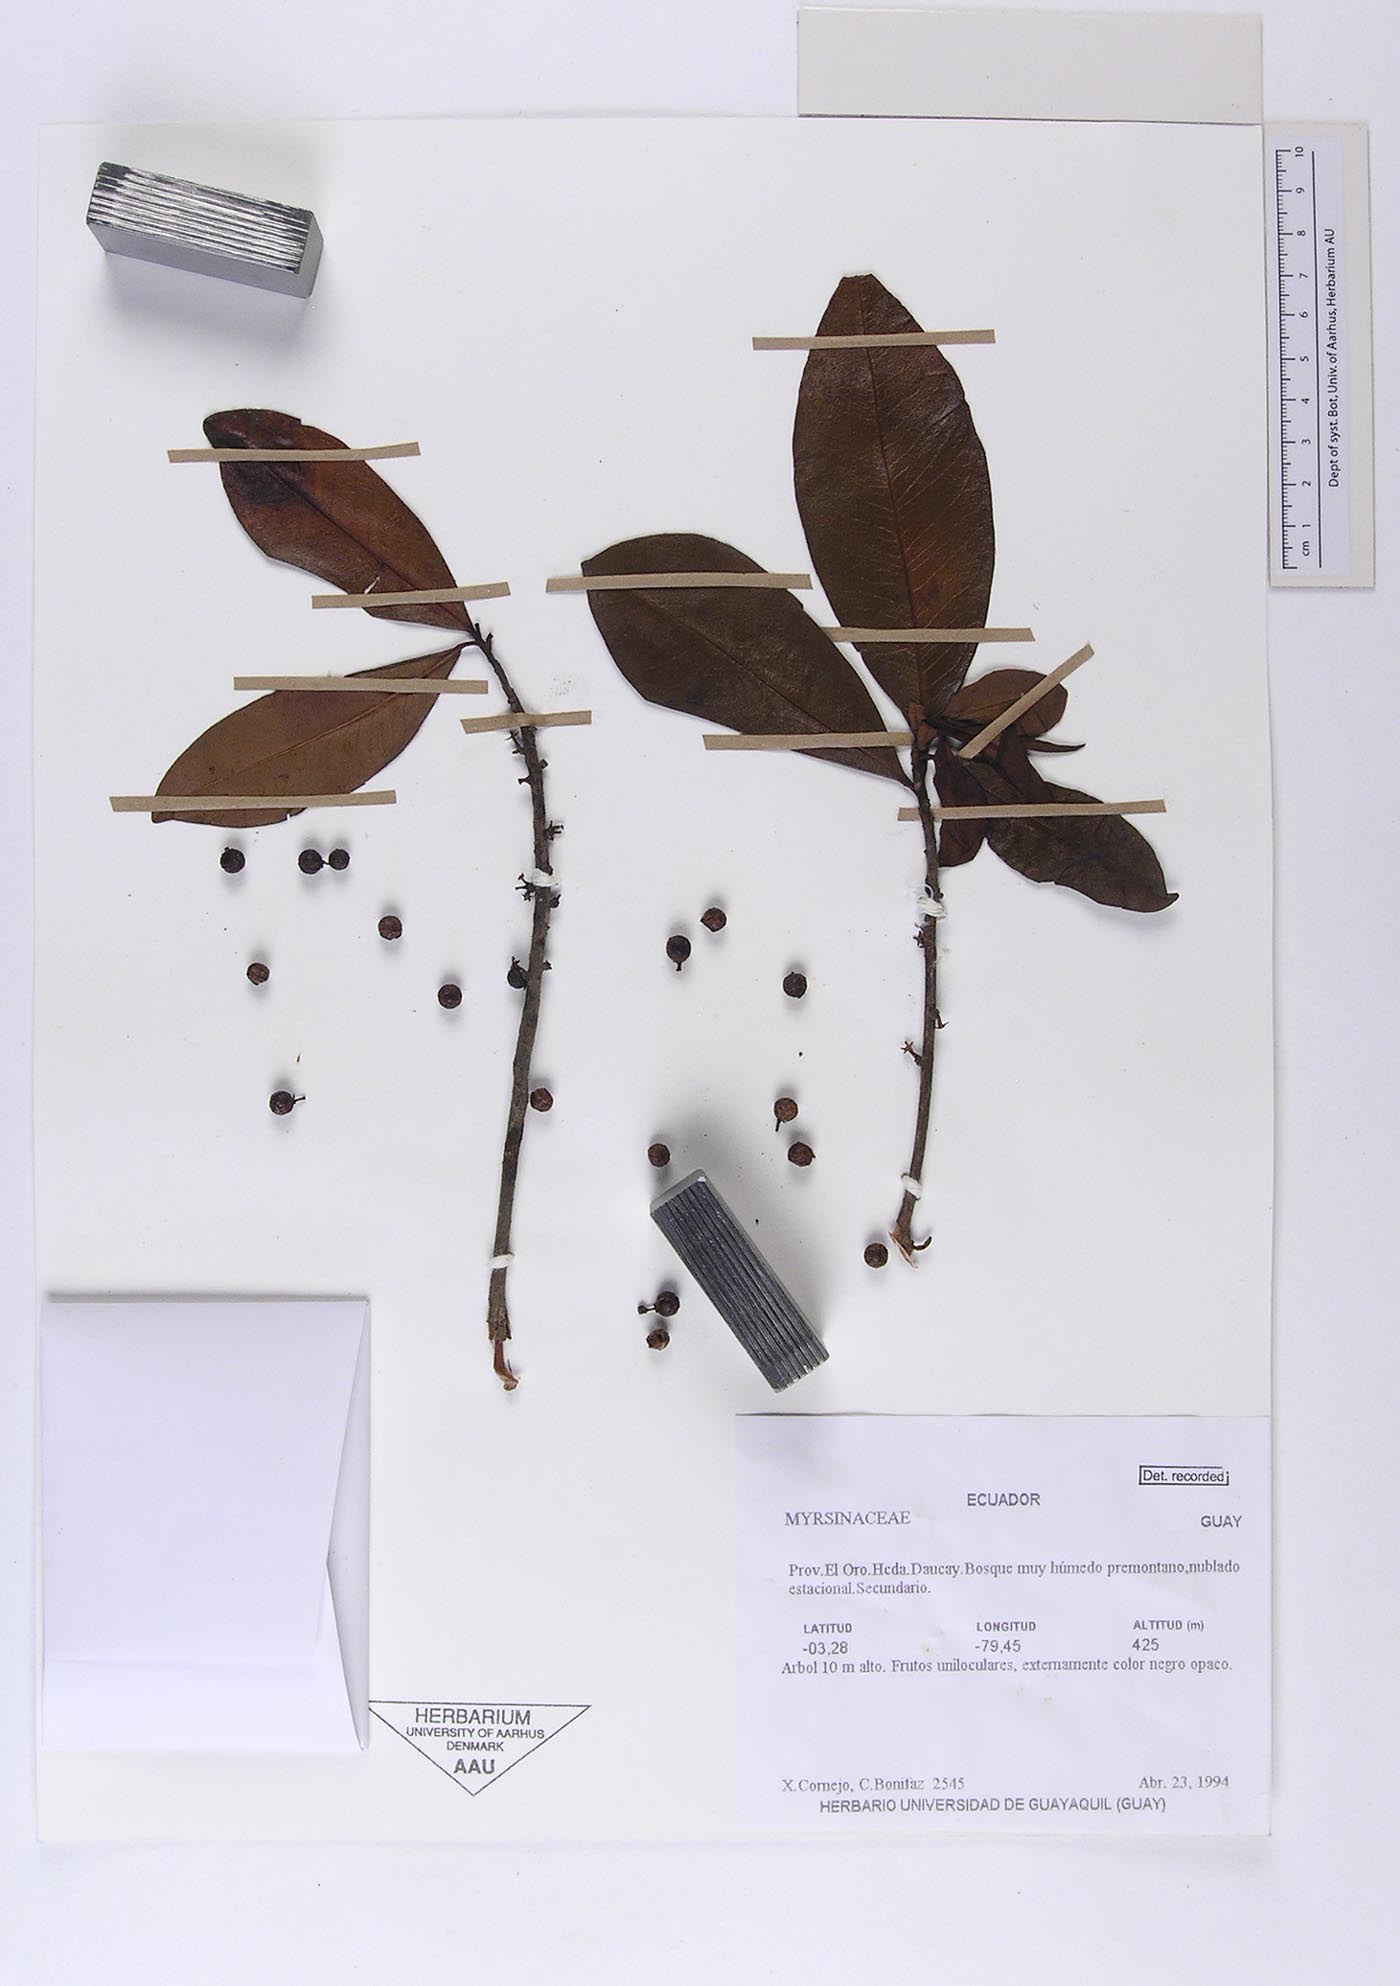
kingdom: Plantae
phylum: Tracheophyta
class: Magnoliopsida
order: Ericales
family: Primulaceae
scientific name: Primulaceae
